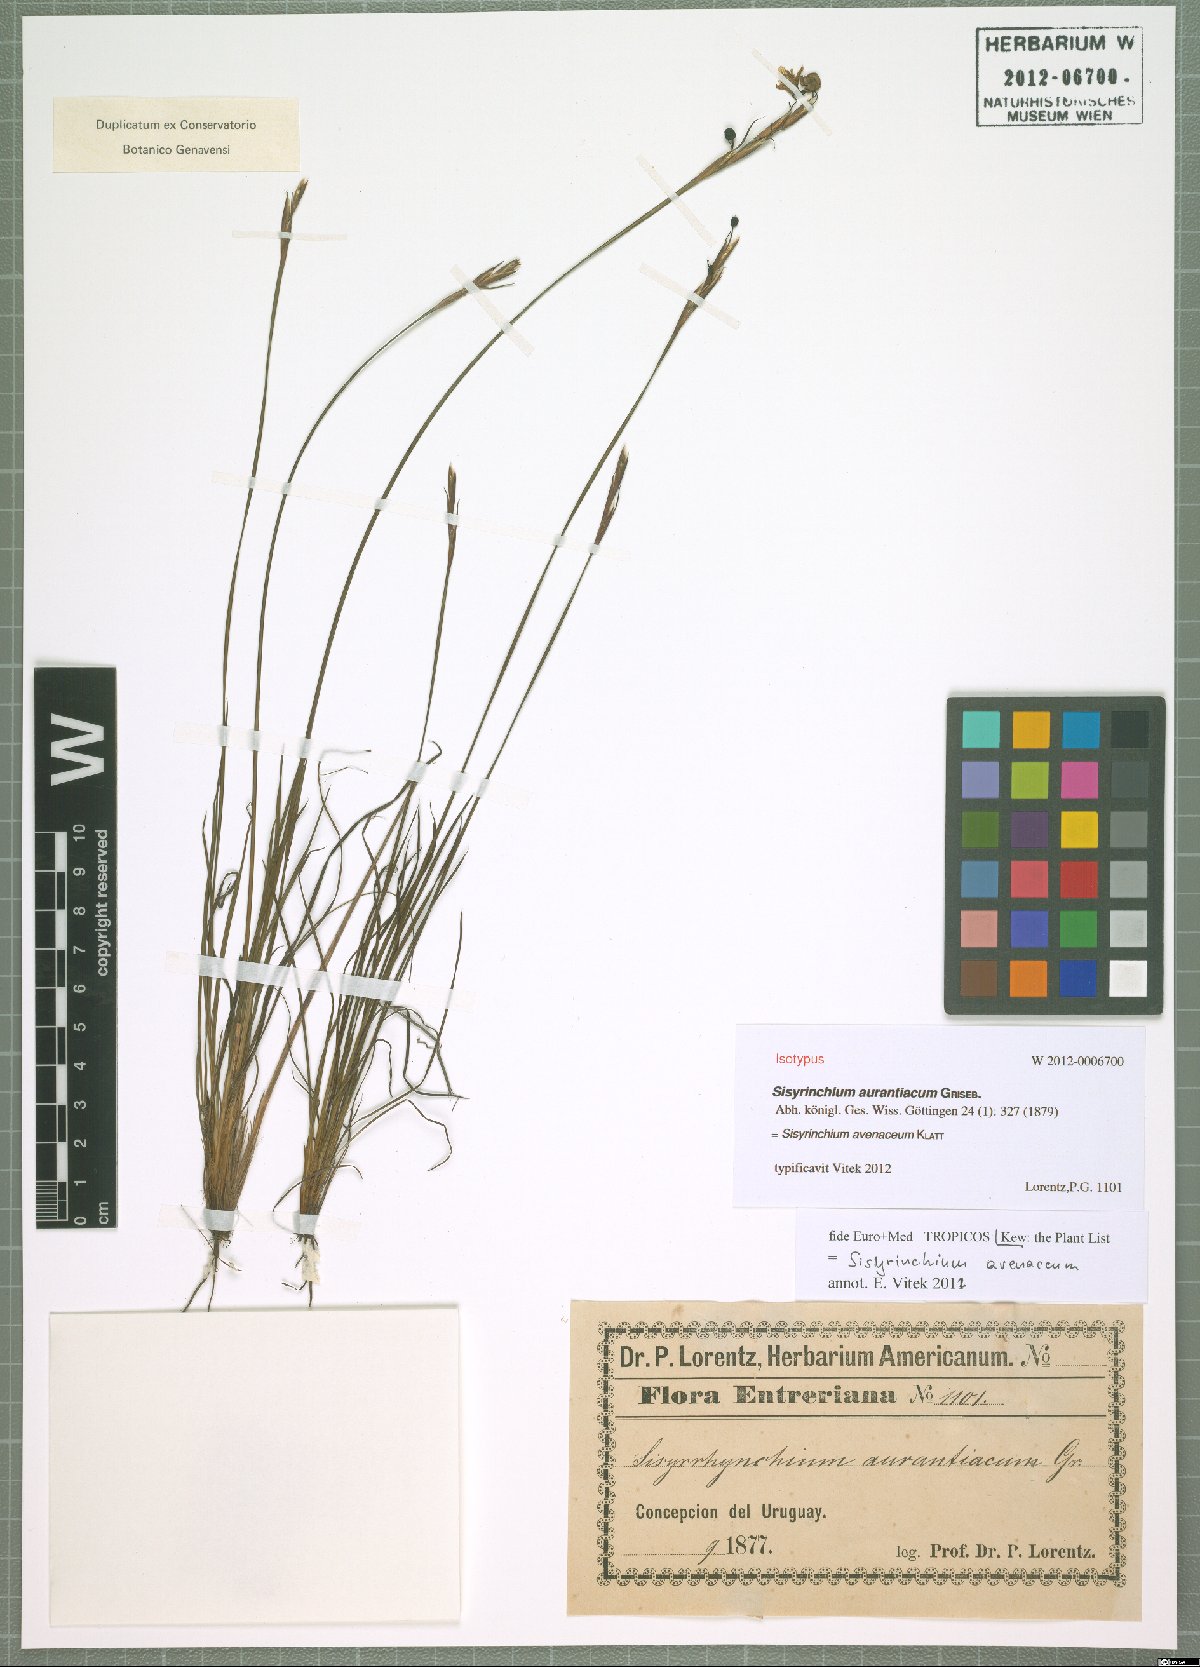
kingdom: Plantae
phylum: Tracheophyta
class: Liliopsida
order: Asparagales
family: Iridaceae
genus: Sisyrinchium
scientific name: Sisyrinchium avenaceum
